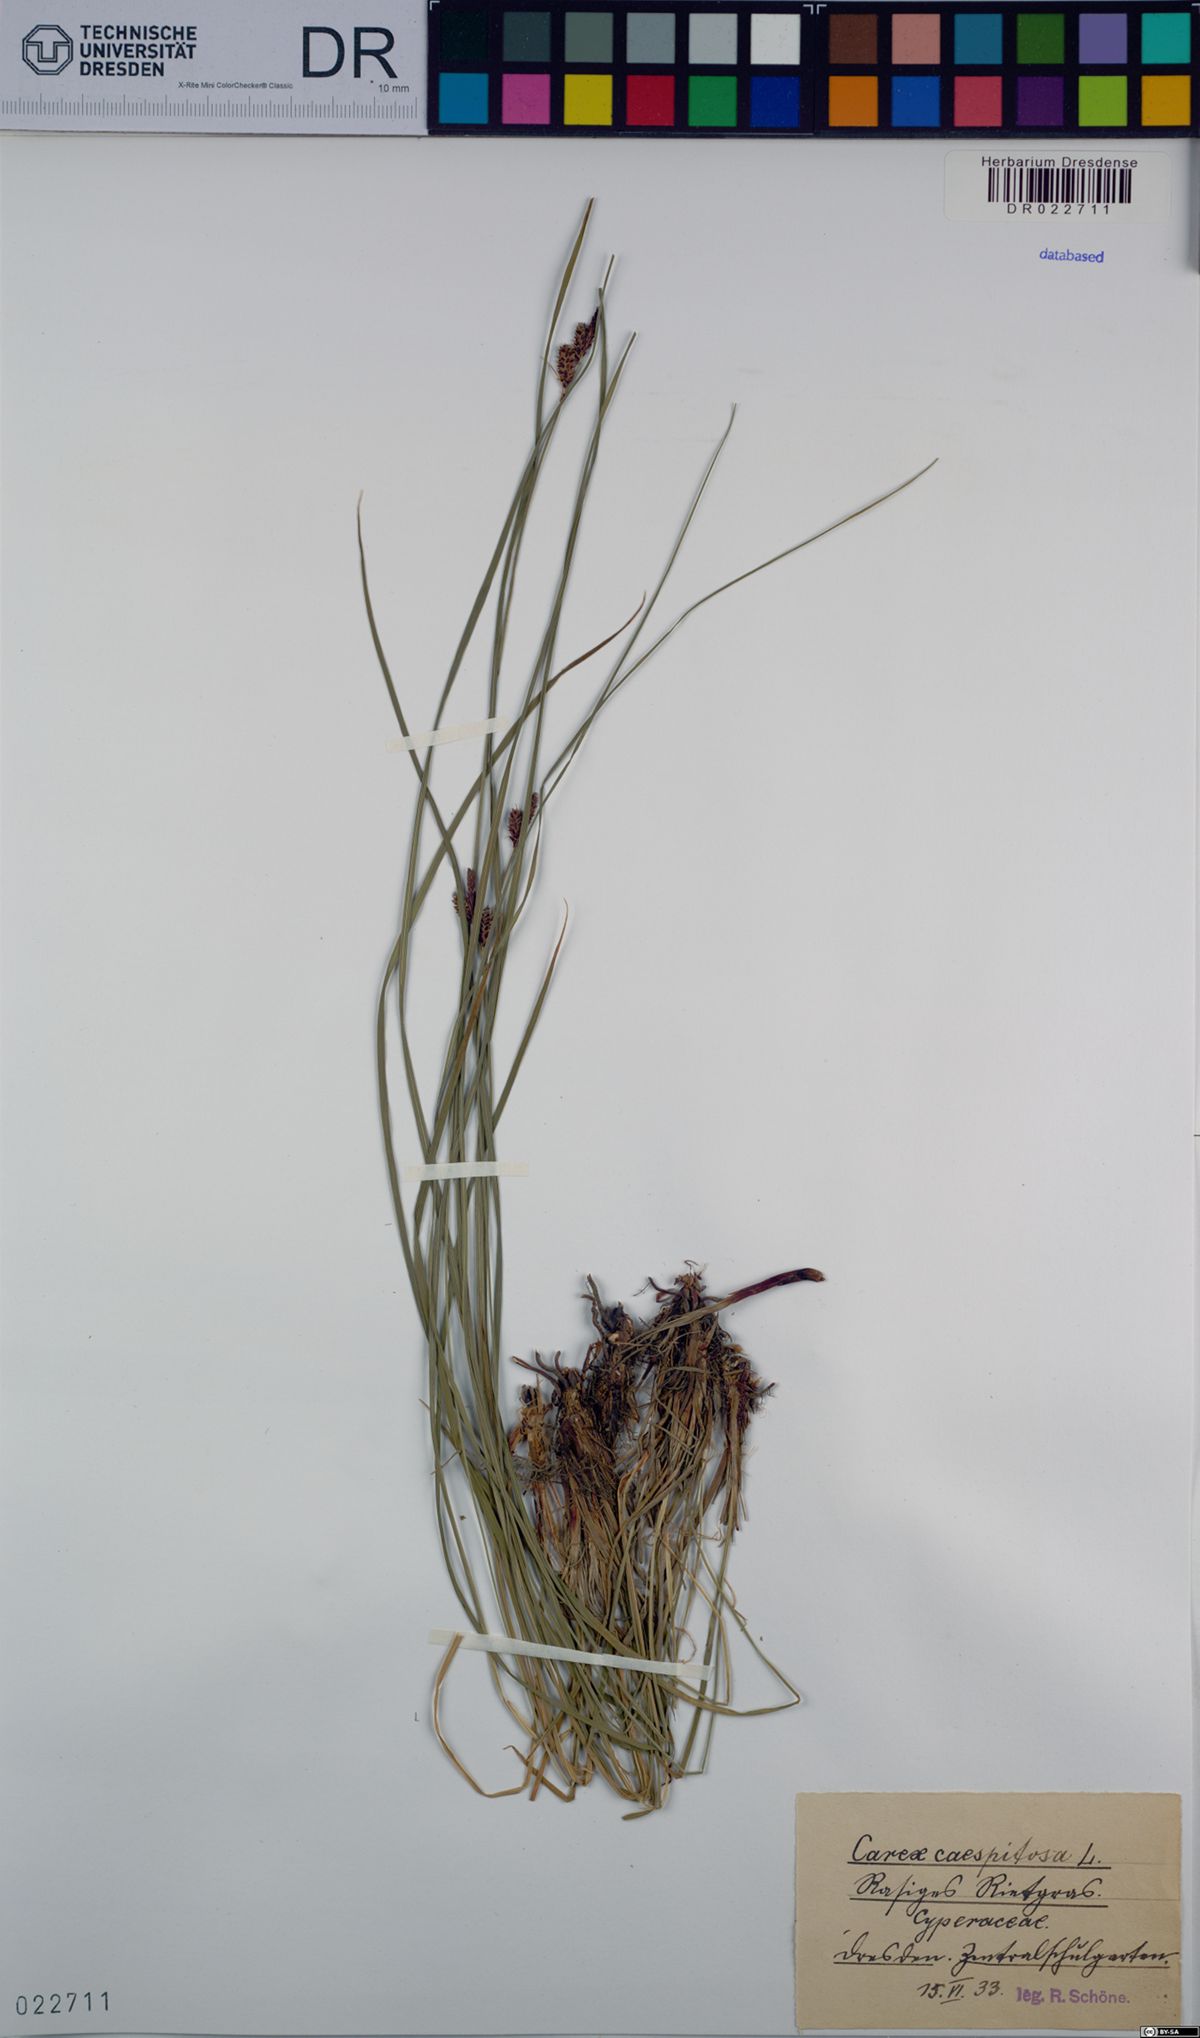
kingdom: Plantae
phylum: Tracheophyta
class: Liliopsida
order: Poales
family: Cyperaceae
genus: Carex
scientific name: Carex cespitosa
